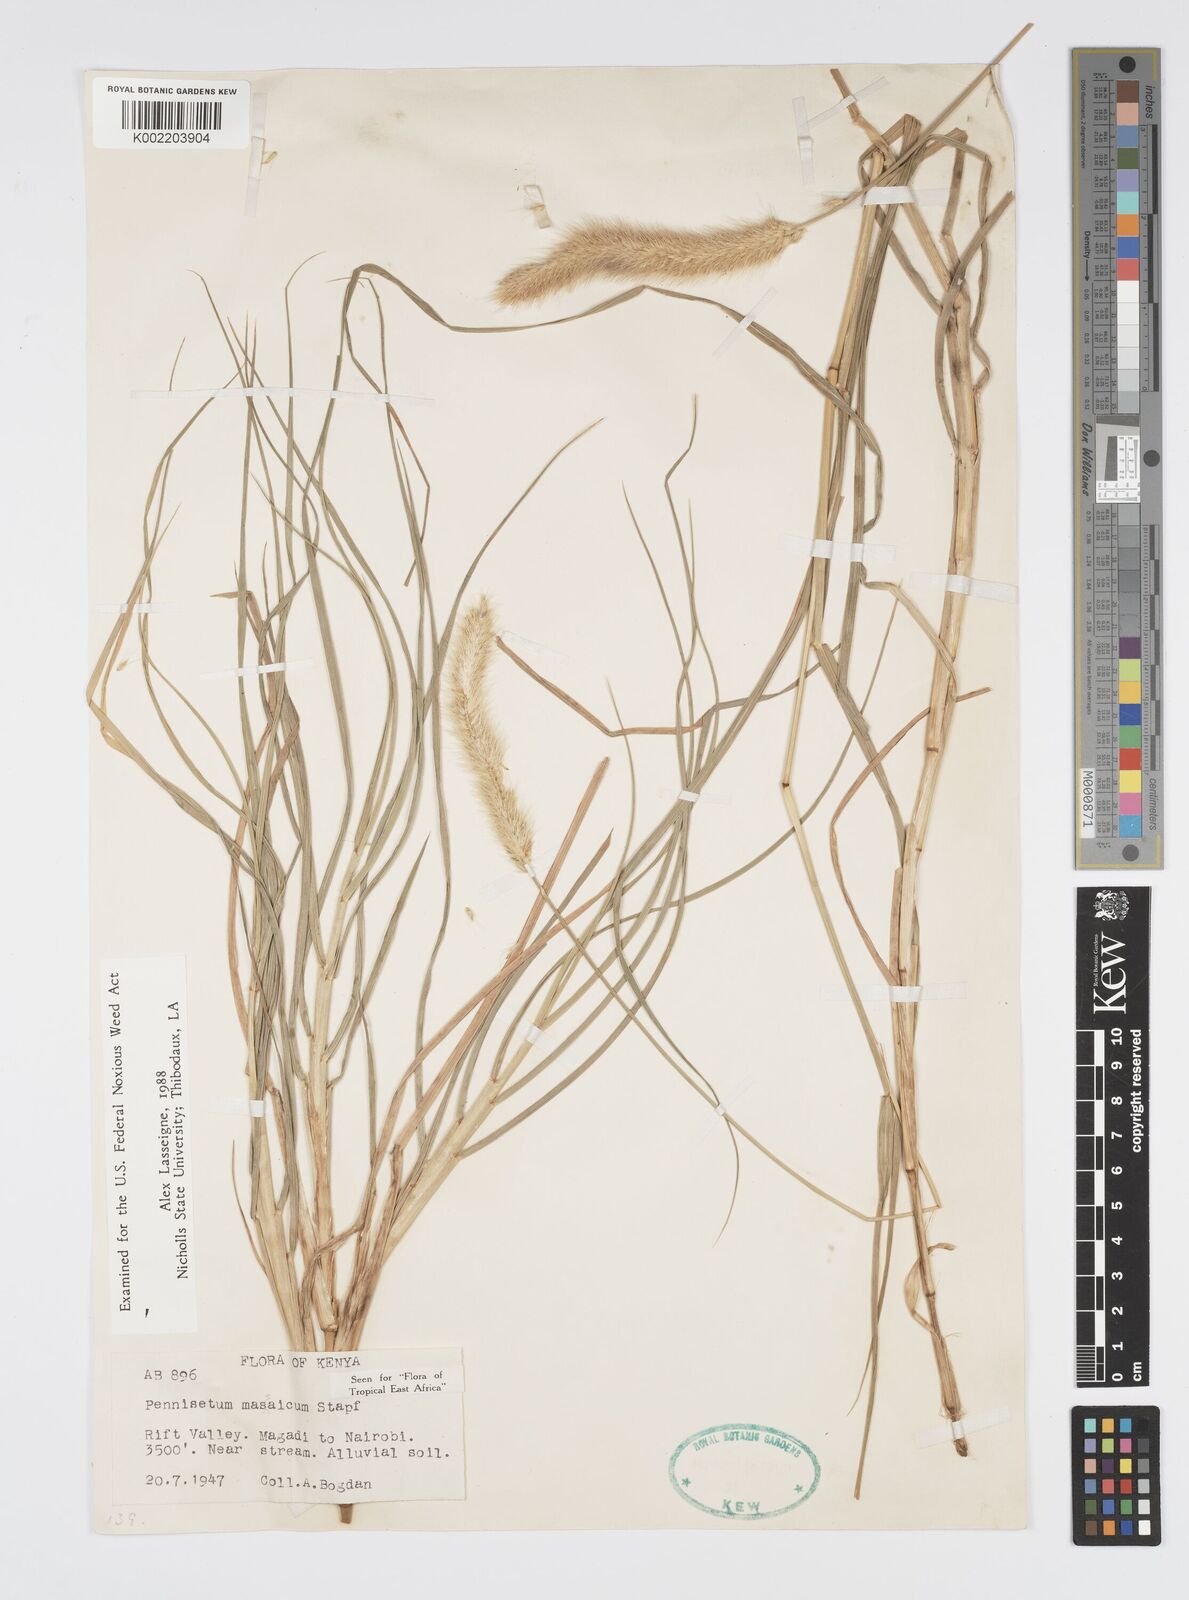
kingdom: Plantae
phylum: Tracheophyta
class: Liliopsida
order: Poales
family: Poaceae
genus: Cenchrus
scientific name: Cenchrus massaicus
